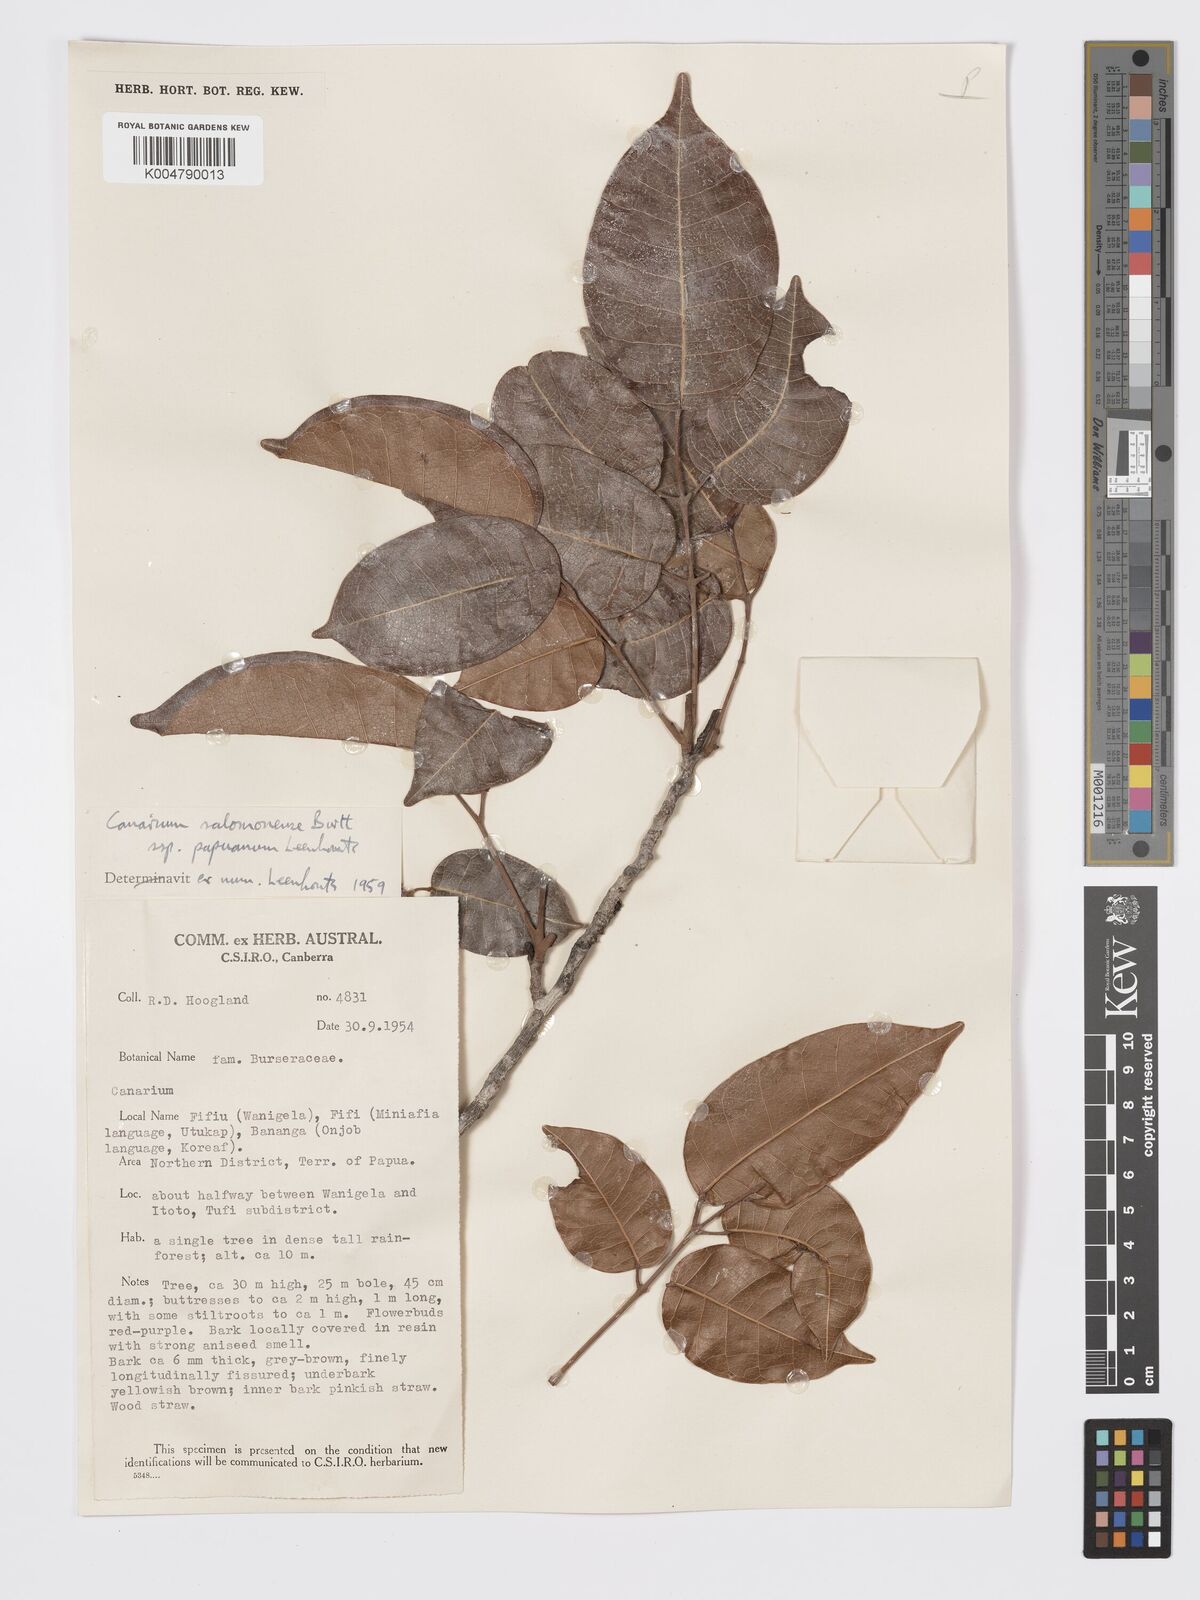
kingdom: Plantae
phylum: Tracheophyta
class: Magnoliopsida
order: Sapindales
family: Burseraceae
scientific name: Burseraceae
